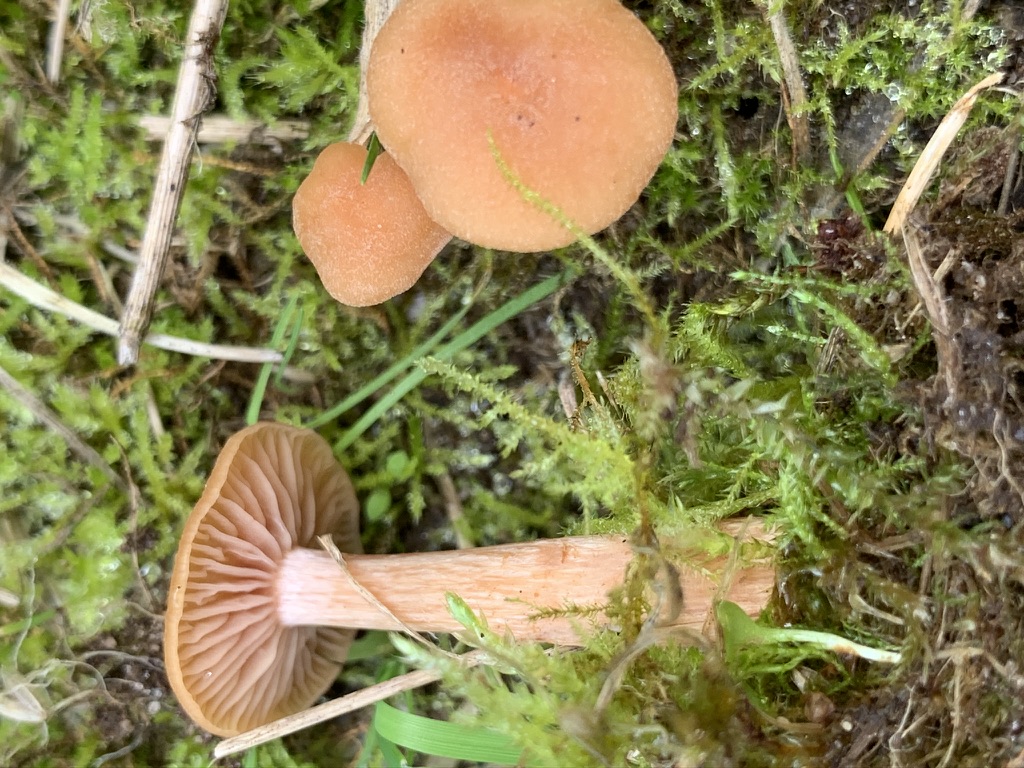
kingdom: Fungi
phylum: Basidiomycota
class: Agaricomycetes
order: Agaricales
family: Hydnangiaceae
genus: Laccaria
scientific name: Laccaria laccata
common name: rød ametysthat
